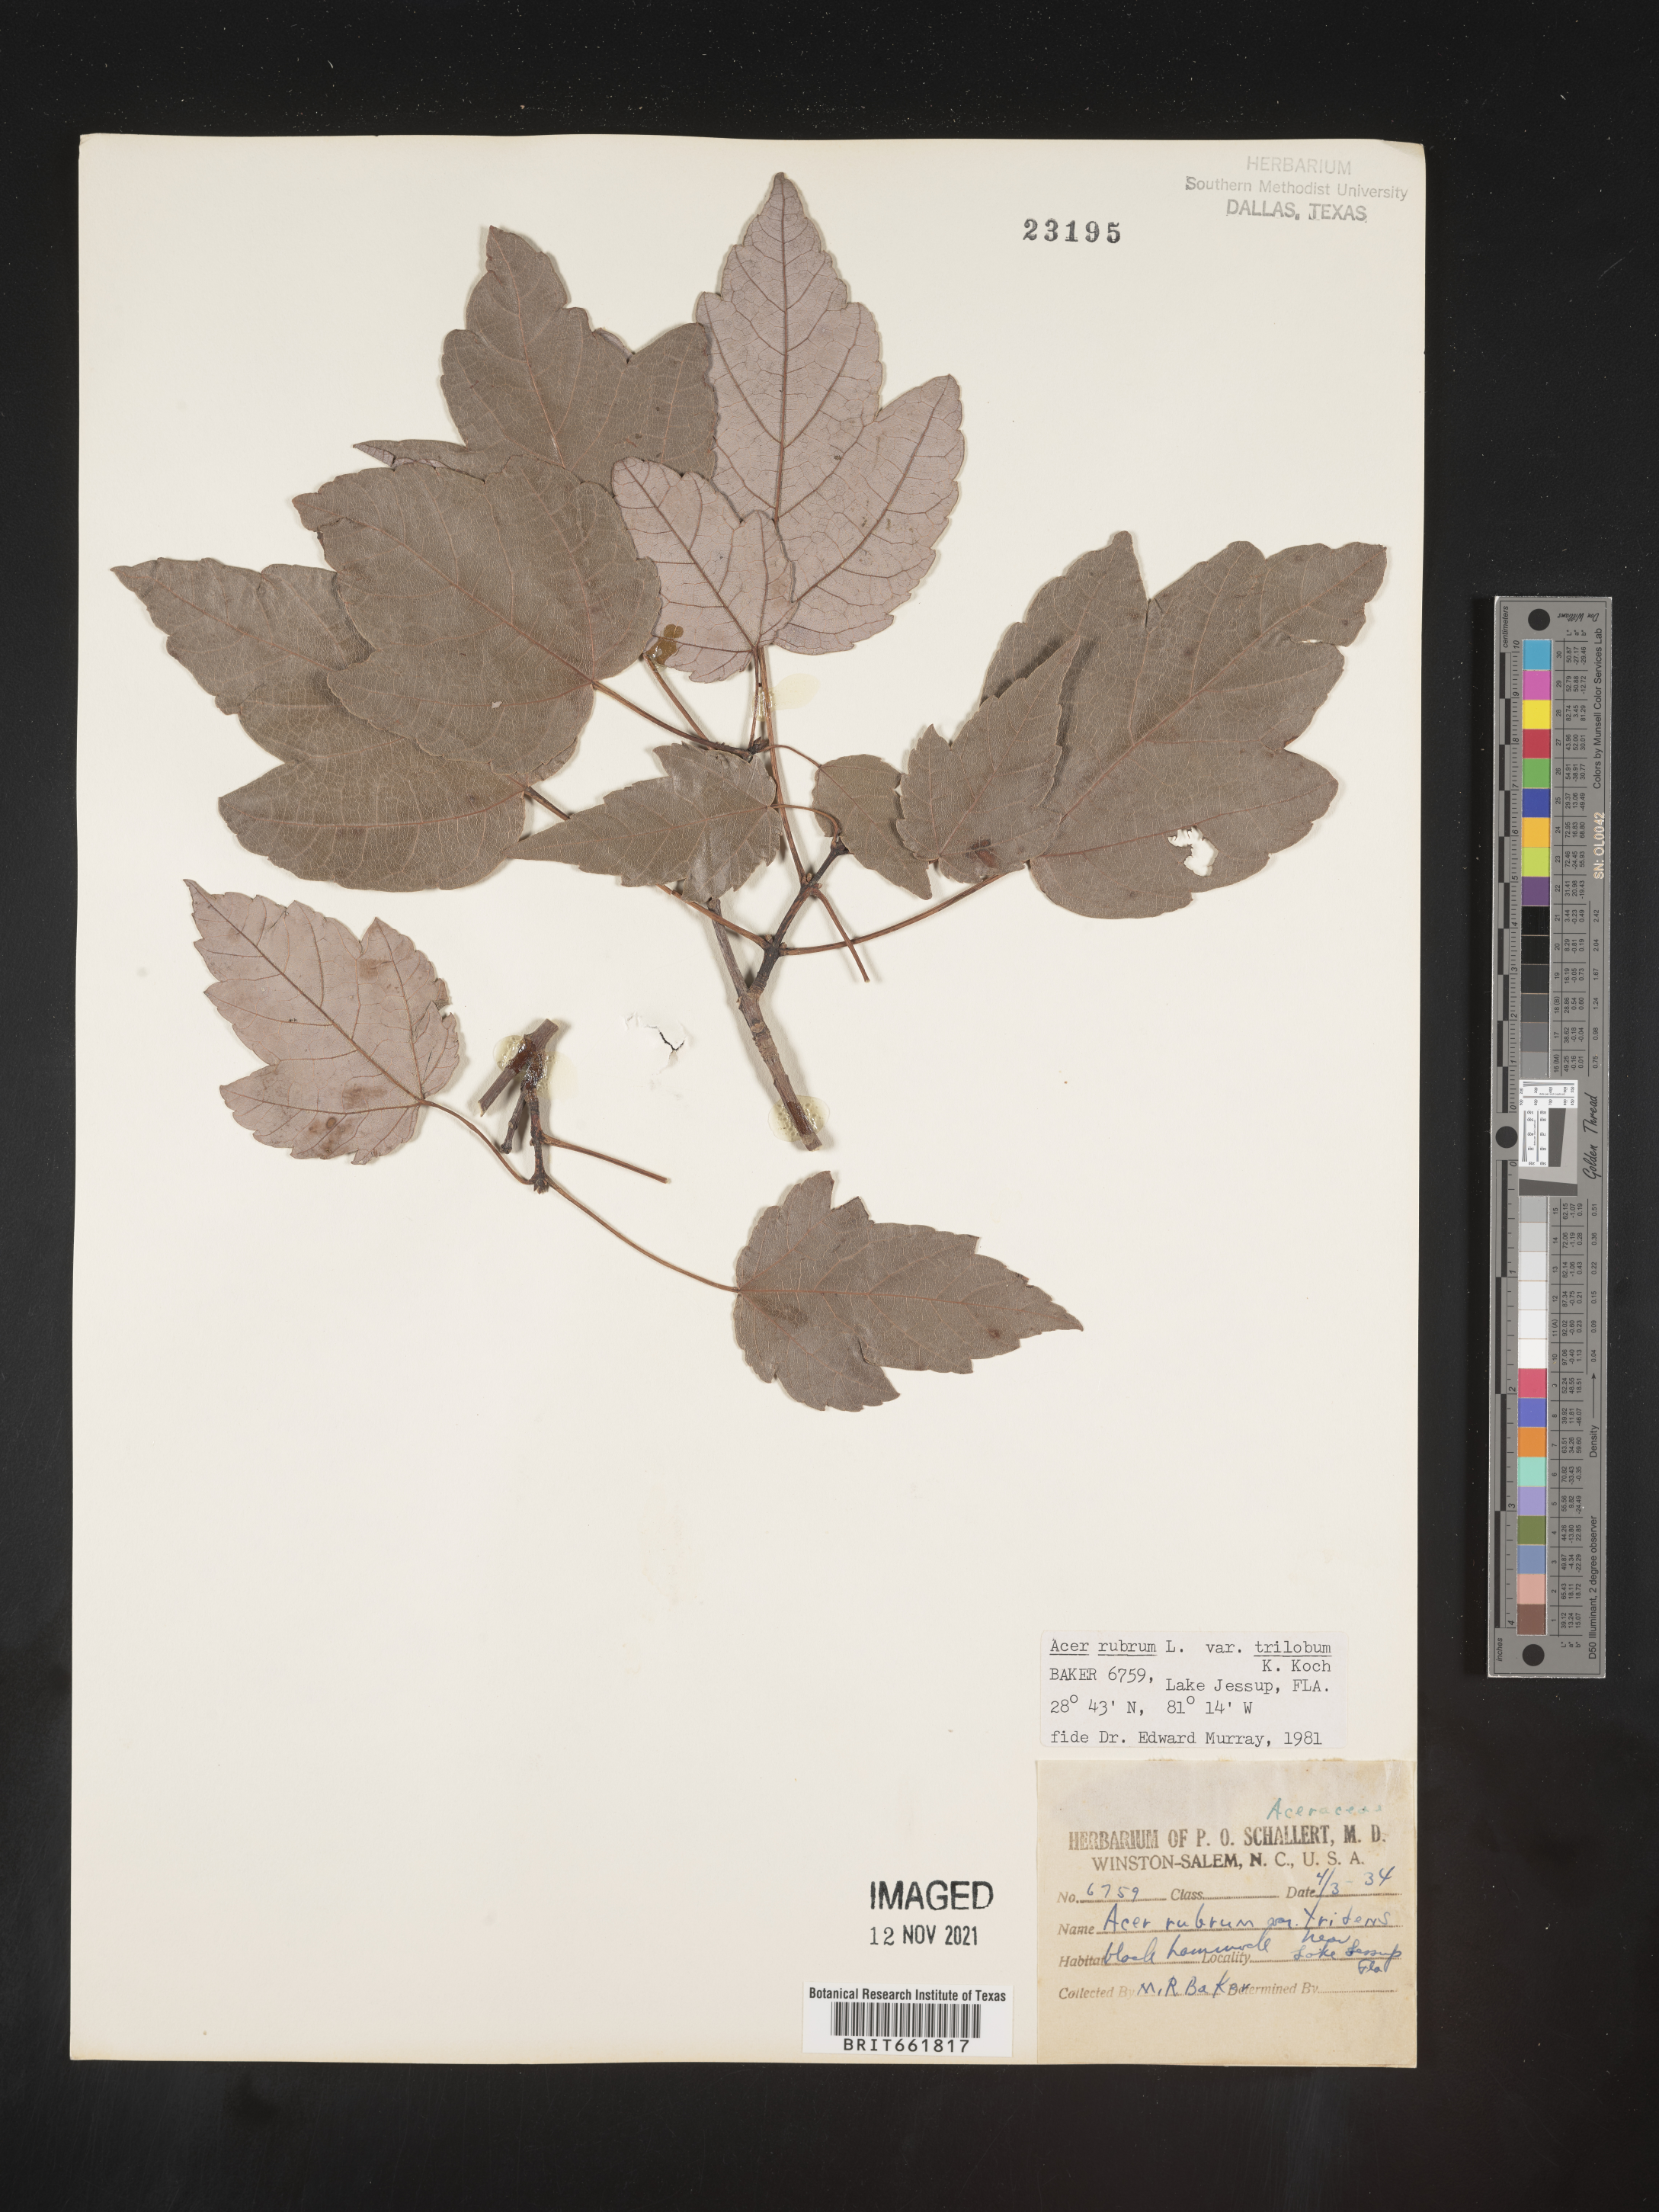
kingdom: Plantae
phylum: Tracheophyta
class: Magnoliopsida
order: Sapindales
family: Sapindaceae
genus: Acer
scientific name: Acer rubrum
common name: Red maple
